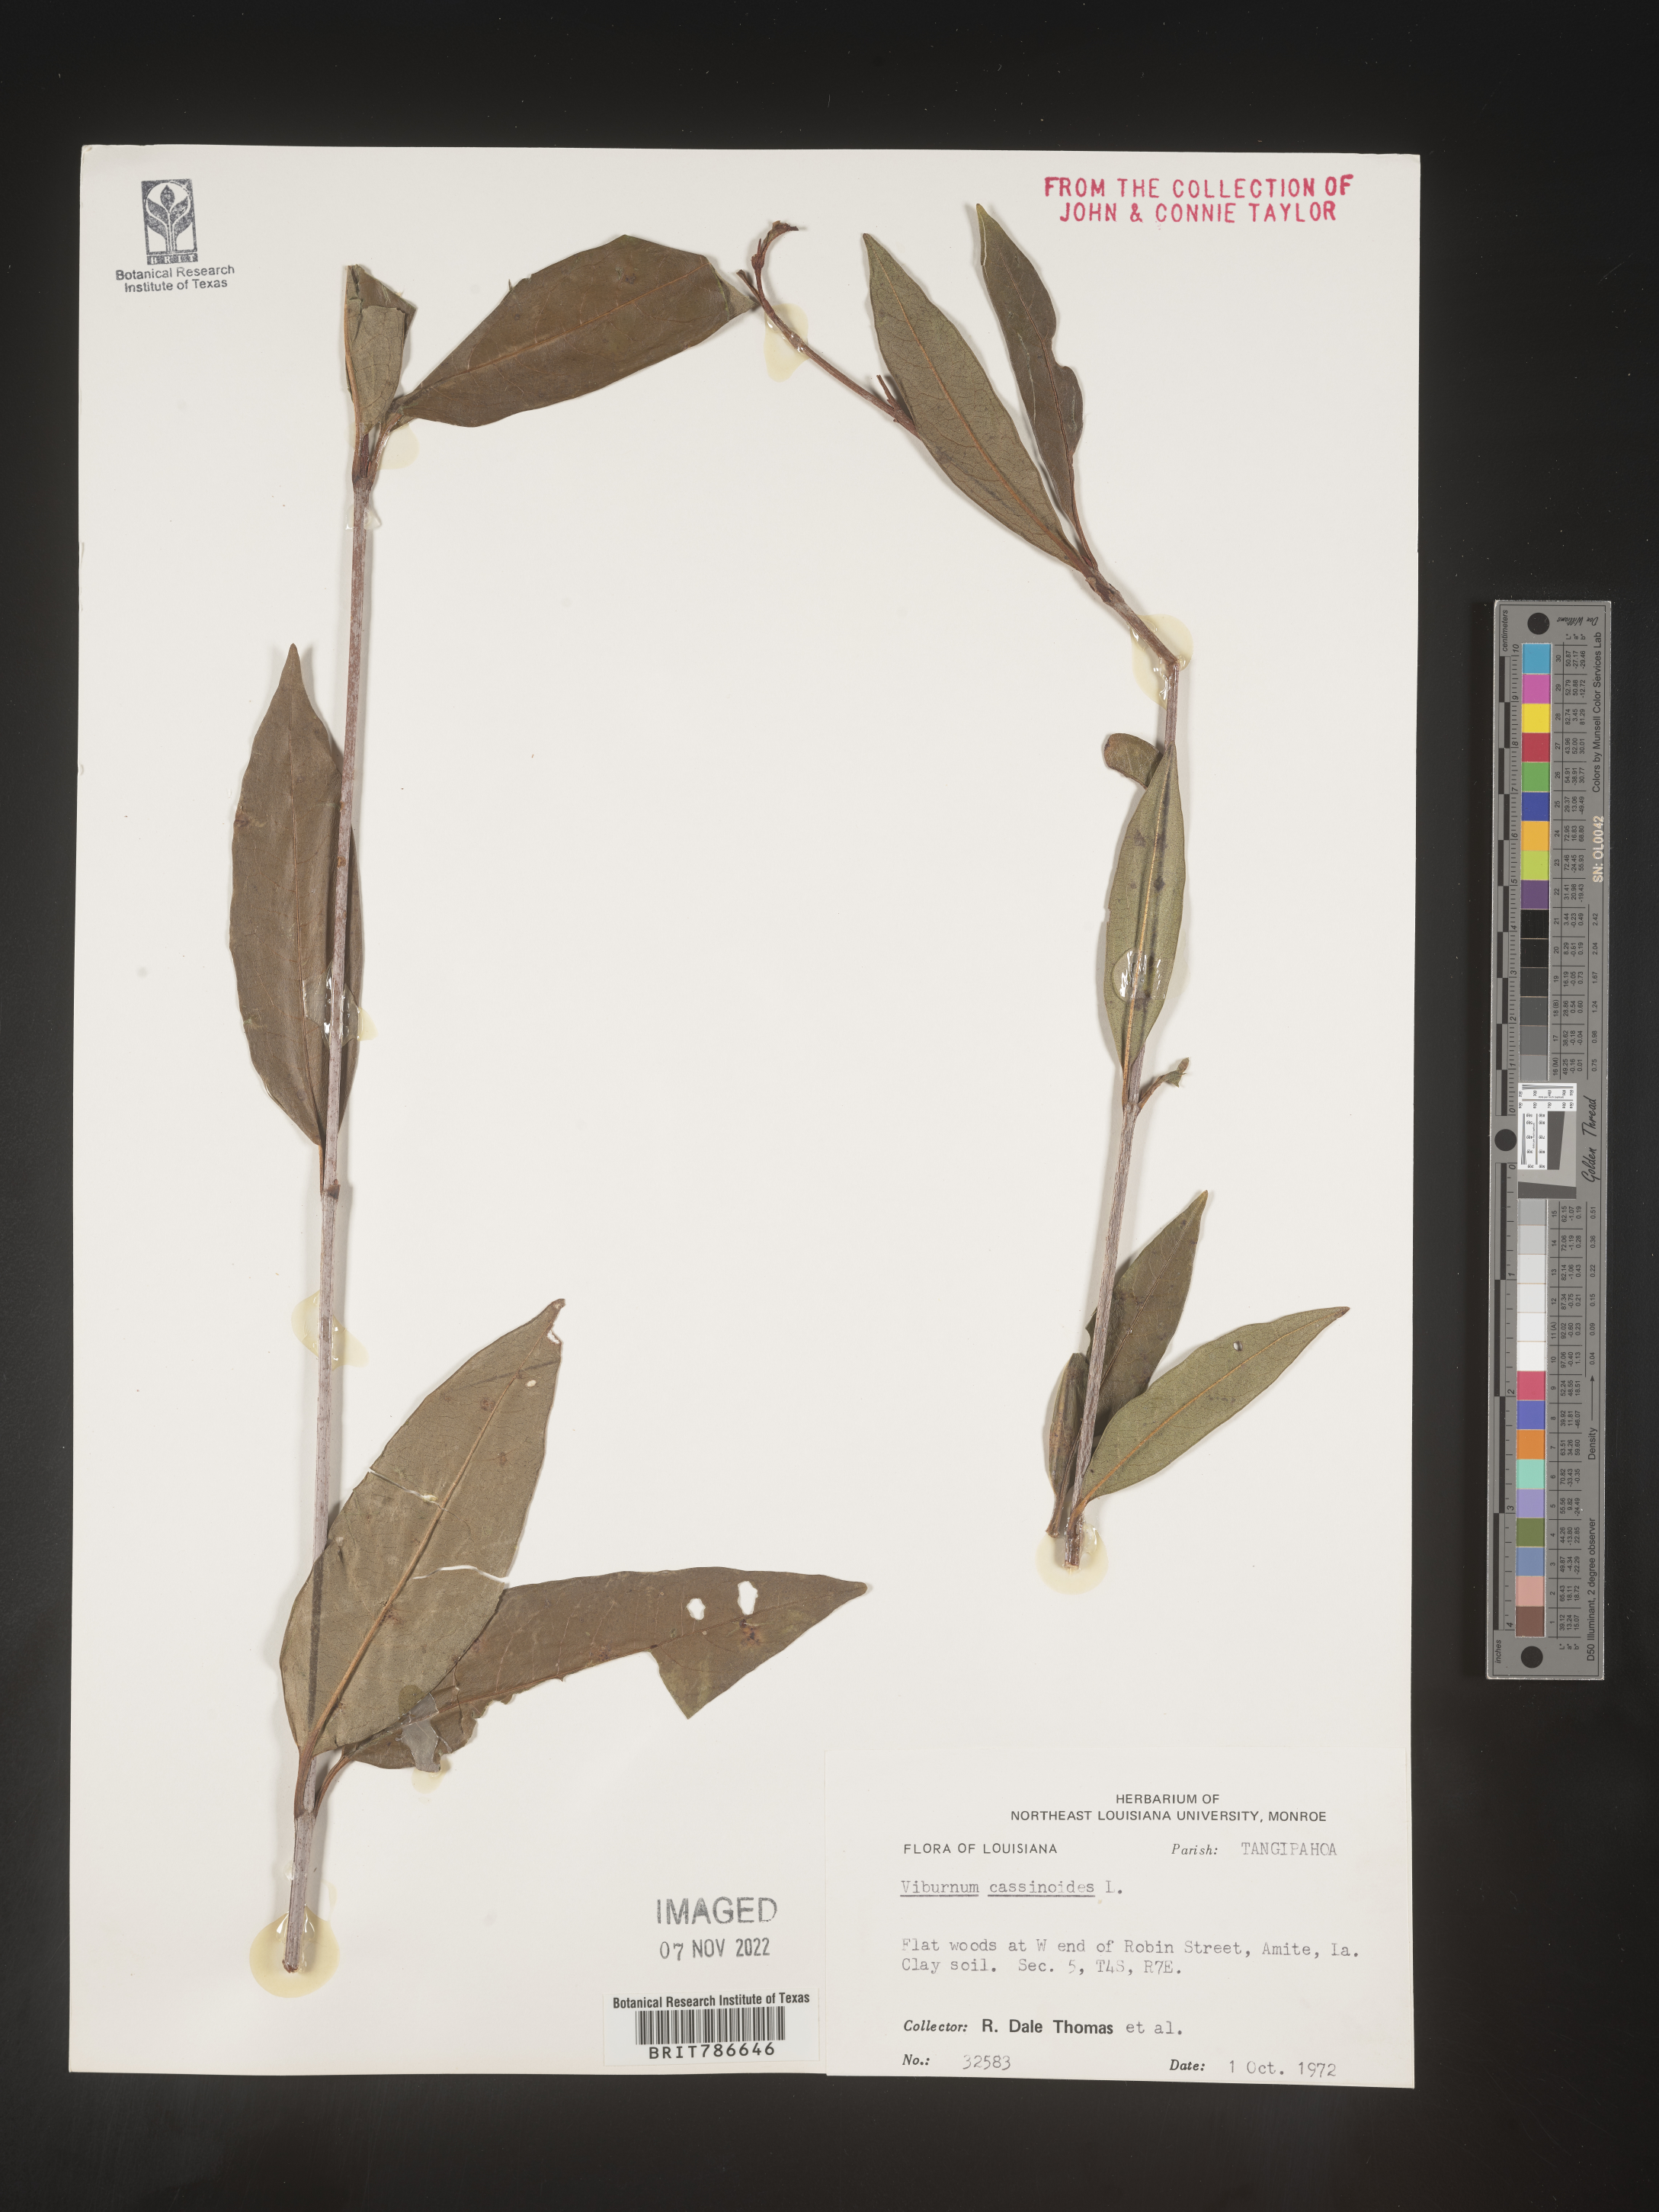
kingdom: Plantae
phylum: Tracheophyta
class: Magnoliopsida
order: Dipsacales
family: Viburnaceae
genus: Viburnum
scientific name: Viburnum cassinoides
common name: Swamp haw
